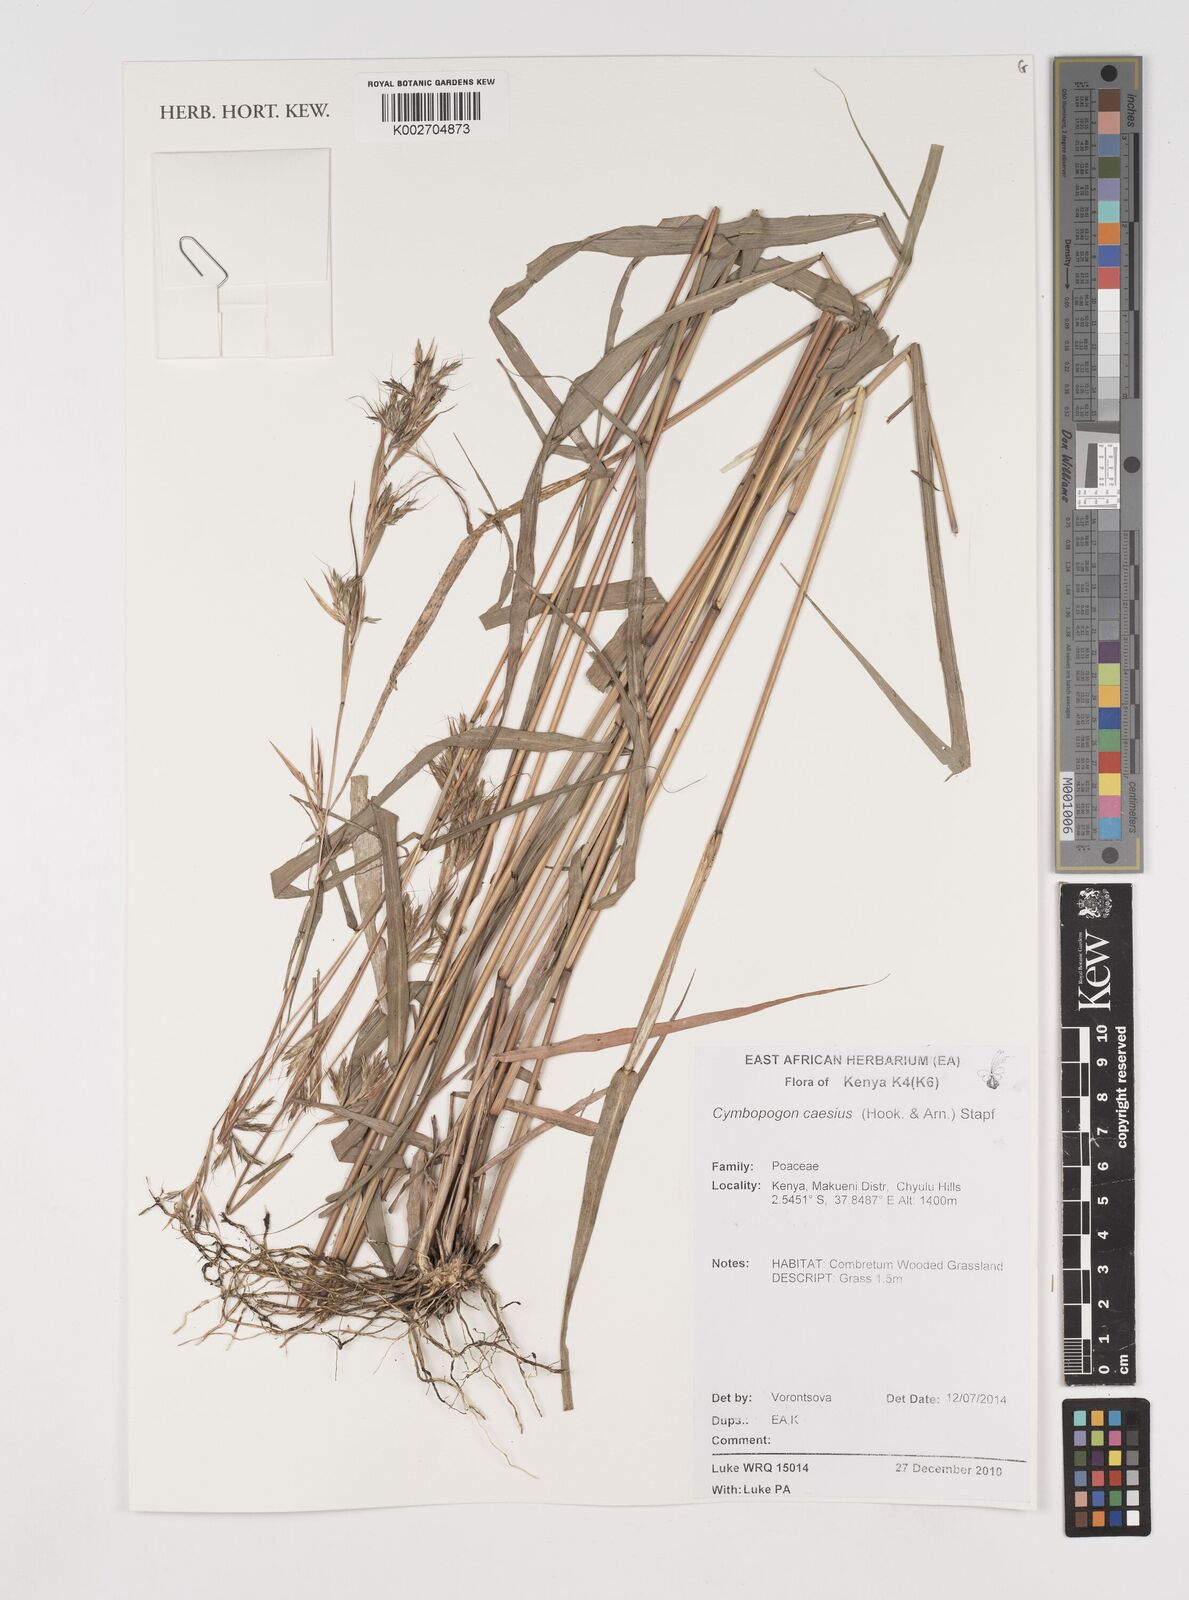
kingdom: Plantae
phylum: Tracheophyta
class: Liliopsida
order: Poales
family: Poaceae
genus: Cymbopogon
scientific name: Cymbopogon caesius
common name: Kachi grass
